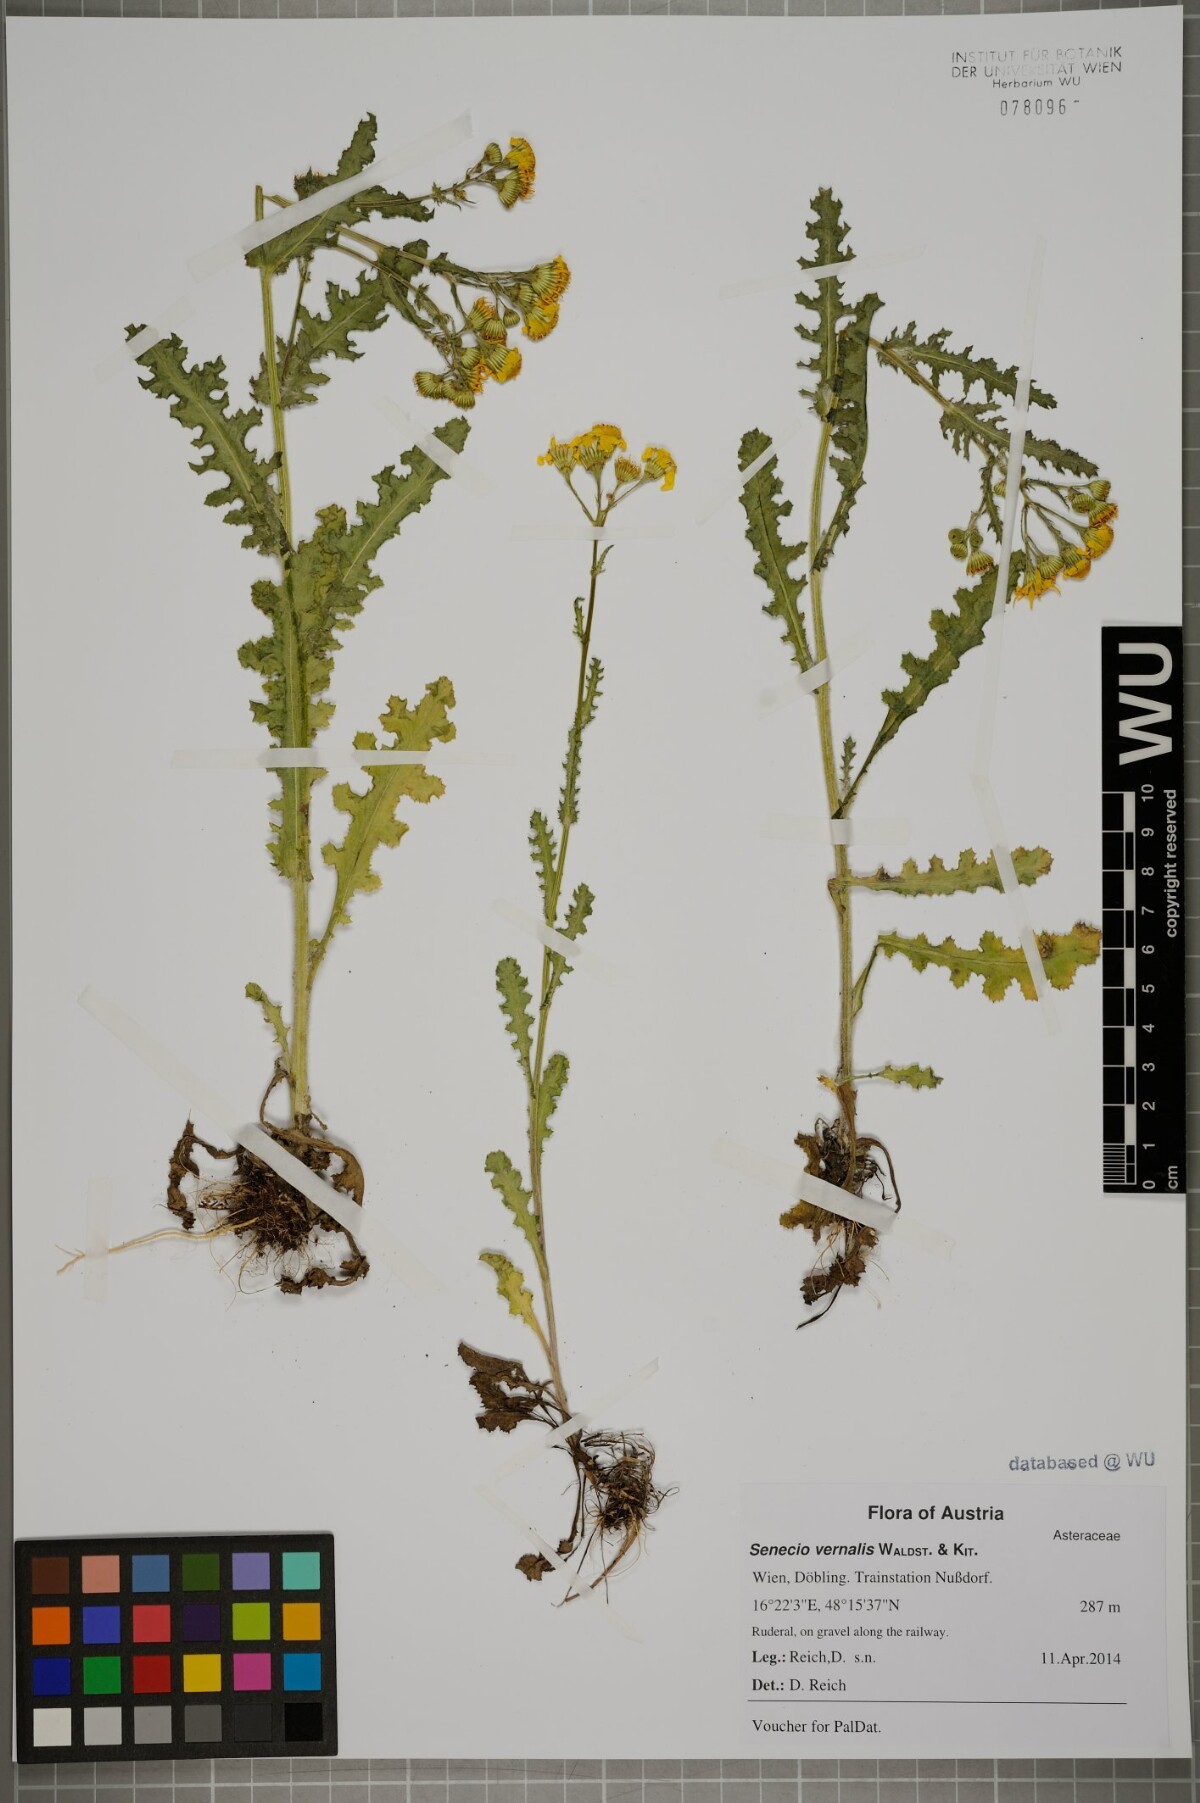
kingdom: Plantae
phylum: Tracheophyta
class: Magnoliopsida
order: Asterales
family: Asteraceae
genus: Senecio
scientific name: Senecio vernalis
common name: Eastern groundsel
